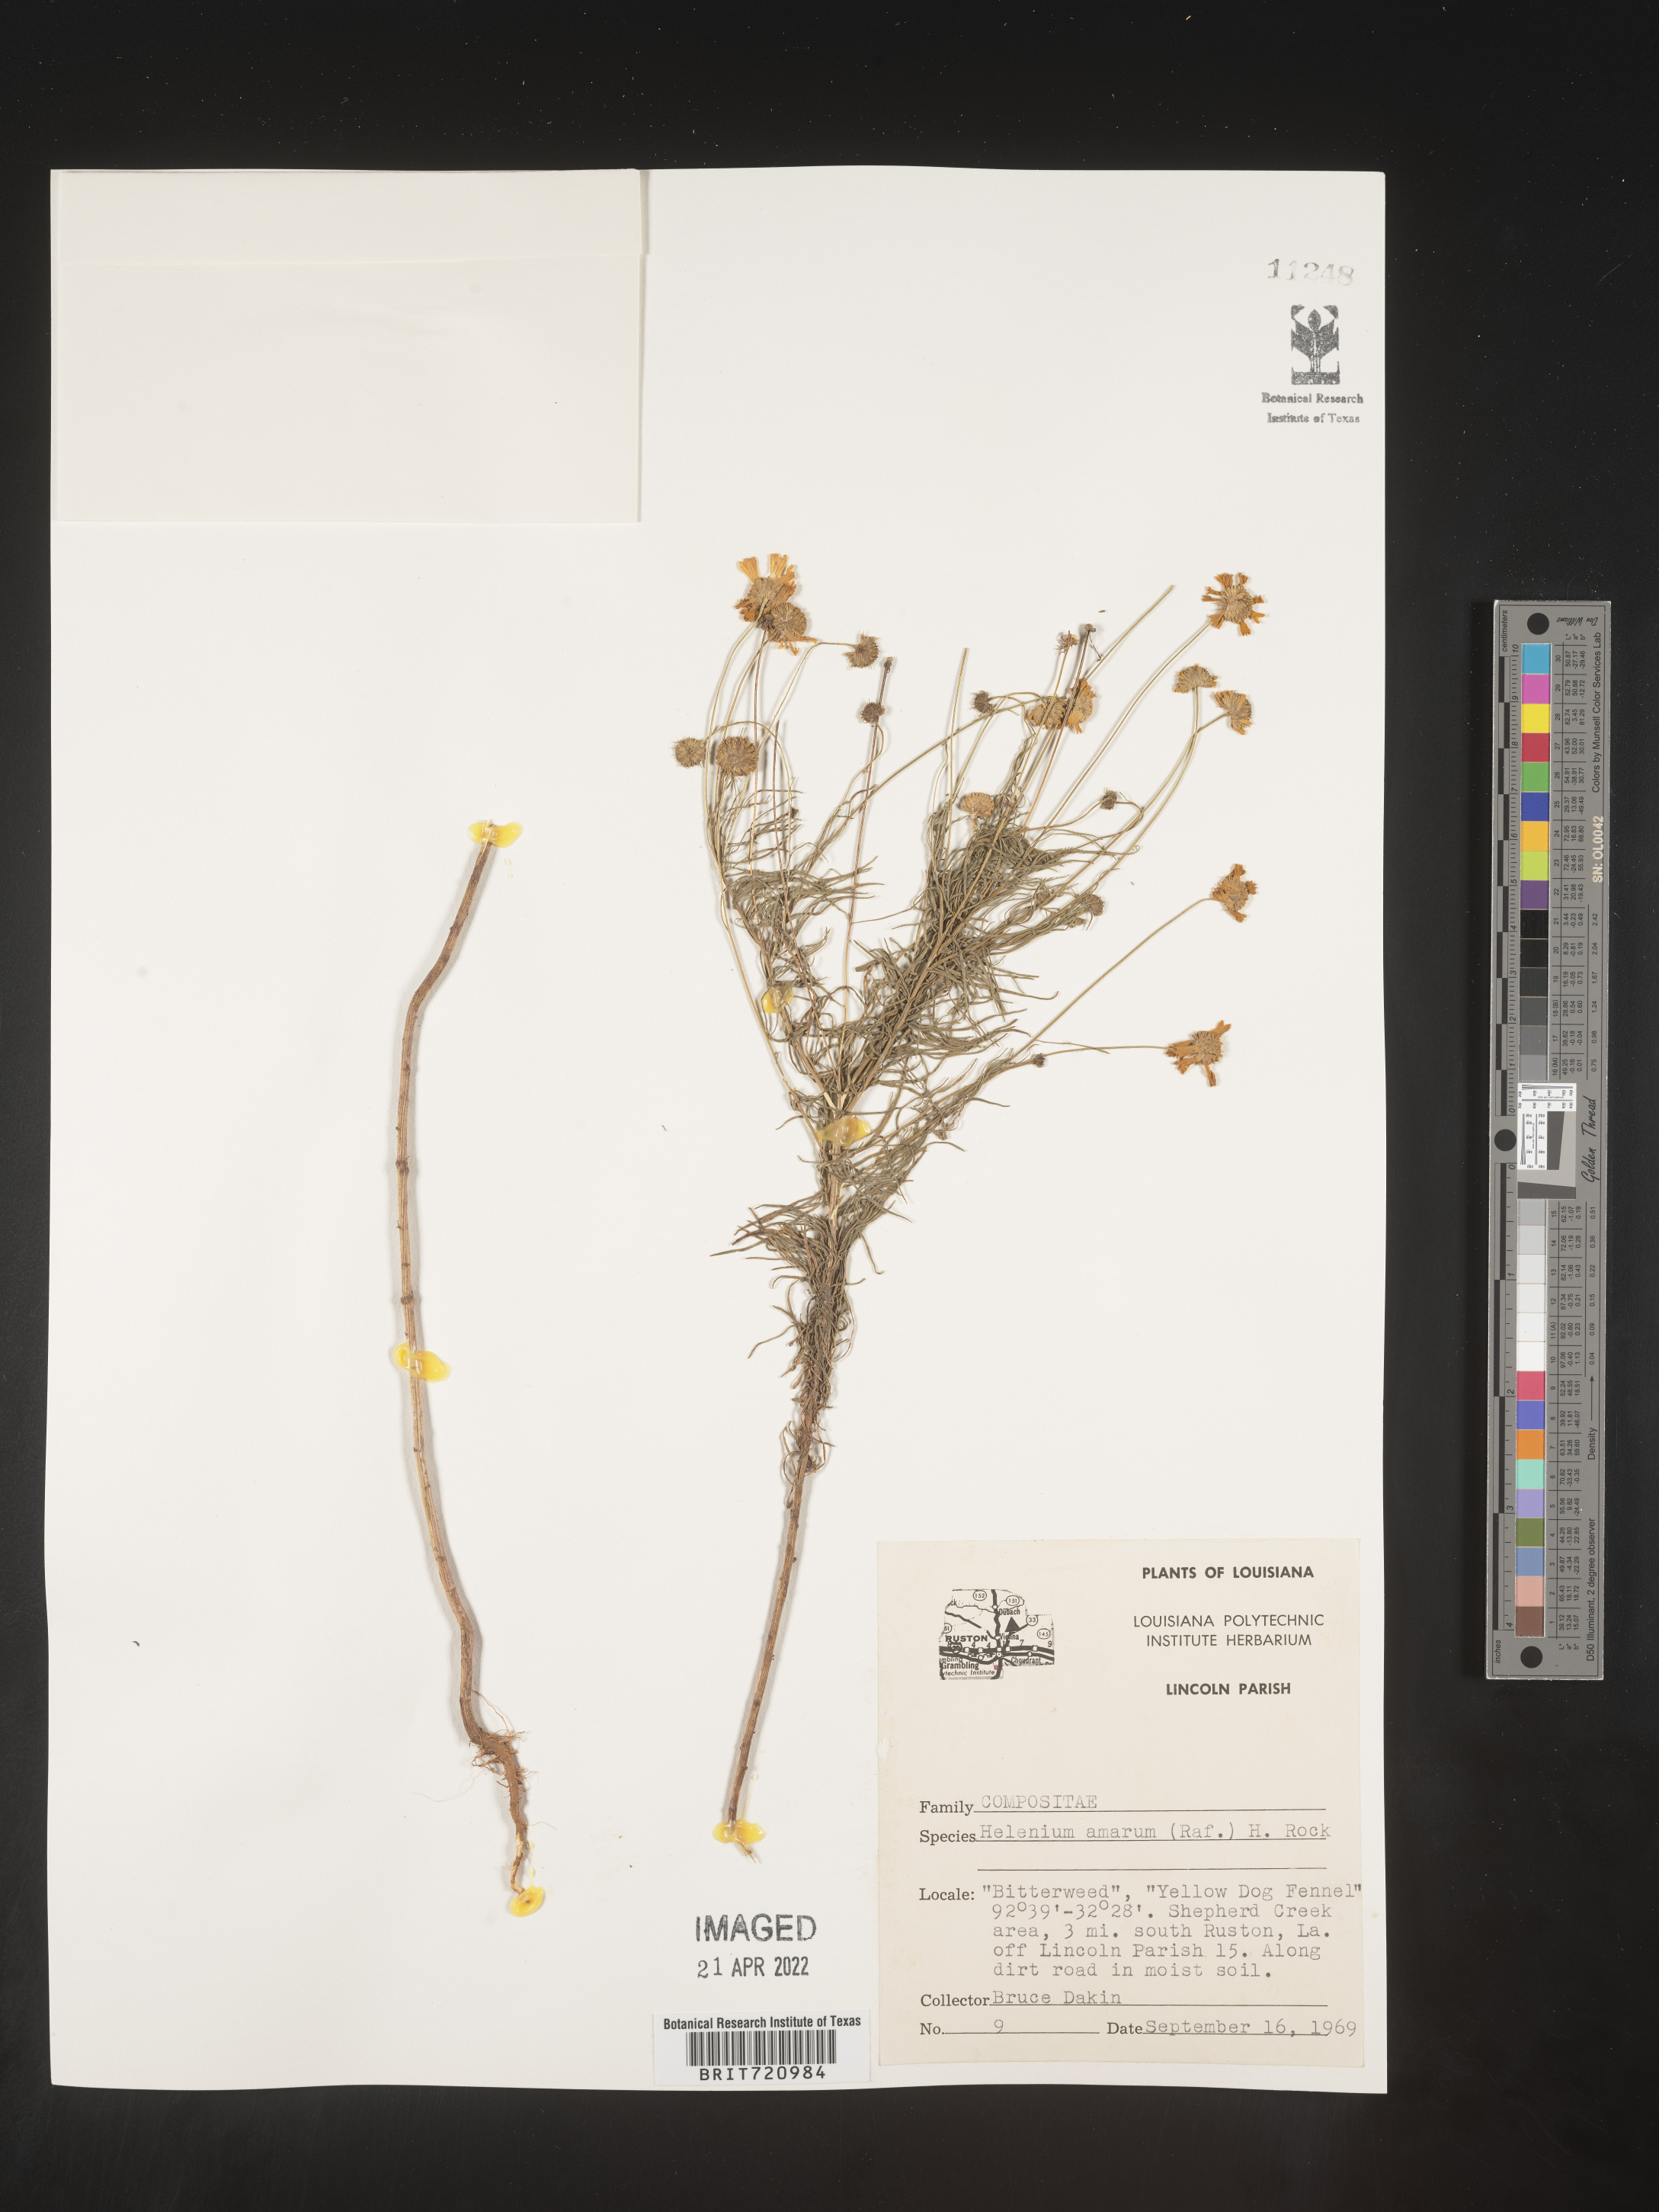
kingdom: Plantae
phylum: Tracheophyta
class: Magnoliopsida
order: Asterales
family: Asteraceae
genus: Helenium
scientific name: Helenium amarum
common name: Bitter sneezeweed
